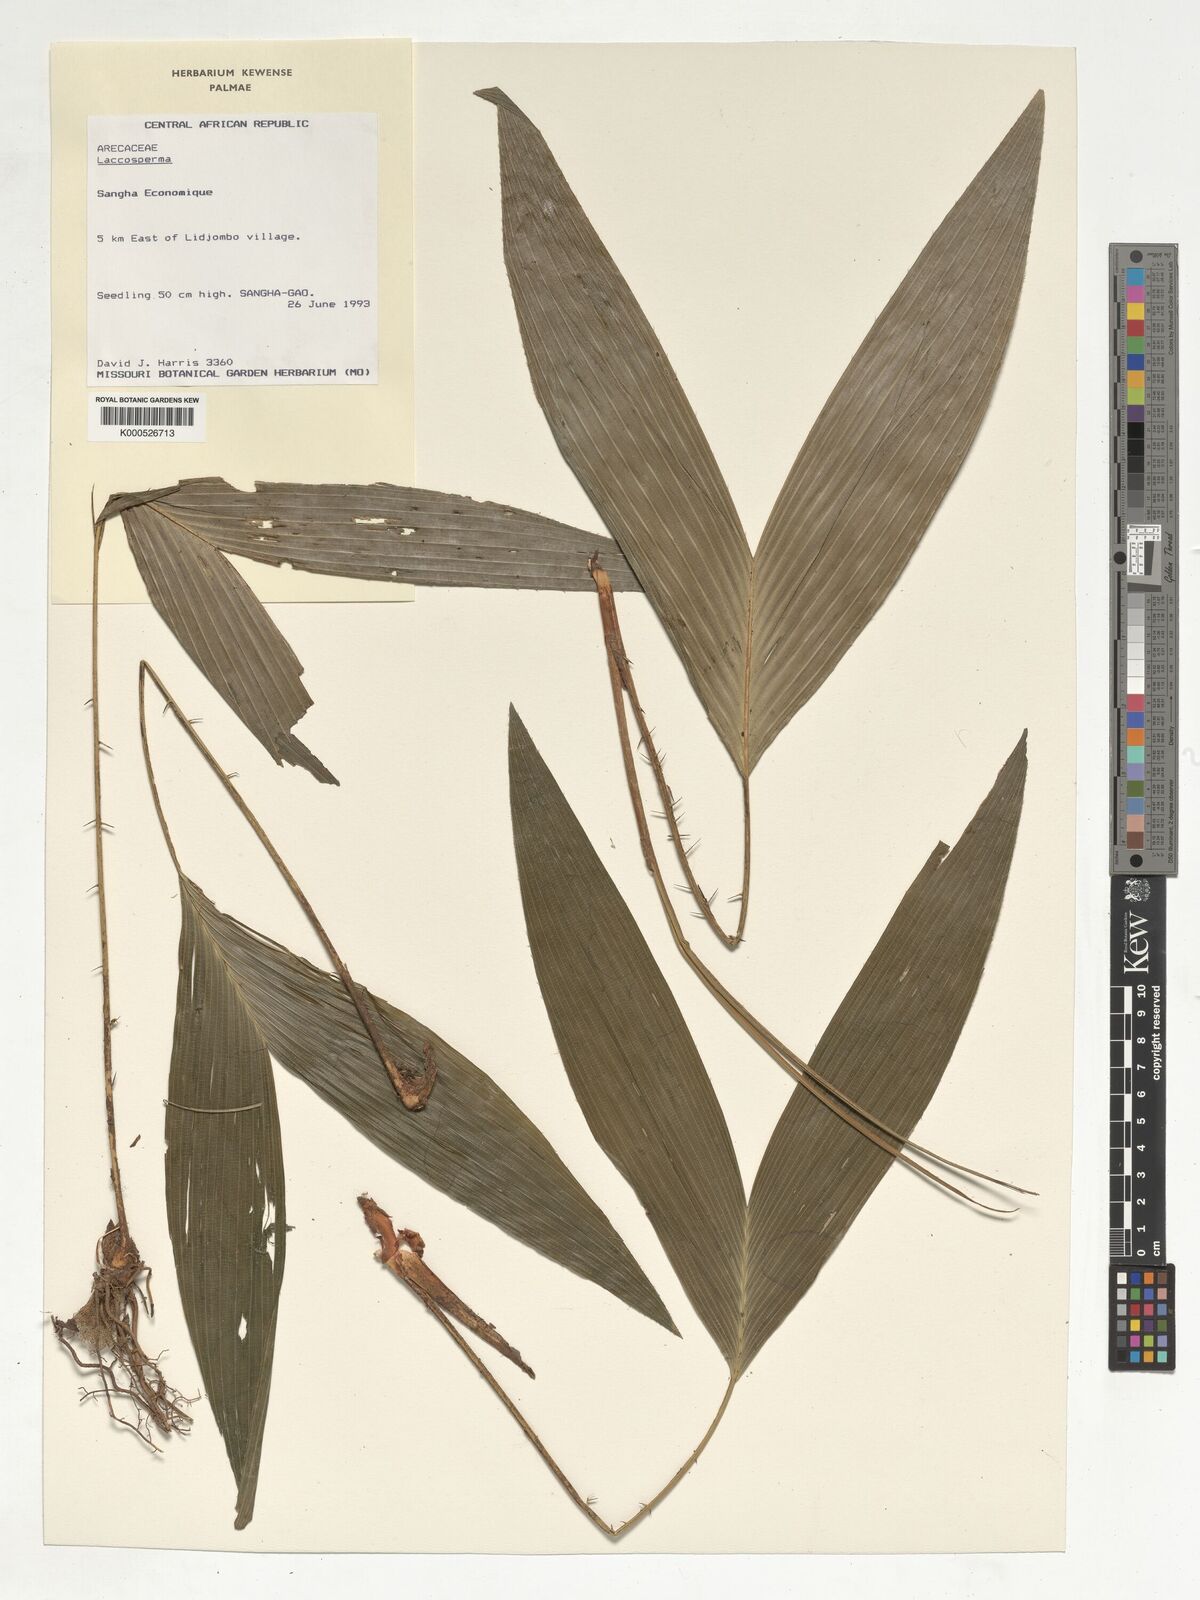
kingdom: Plantae
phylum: Tracheophyta
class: Liliopsida
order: Arecales
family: Arecaceae
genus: Laccosperma
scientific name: Laccosperma
